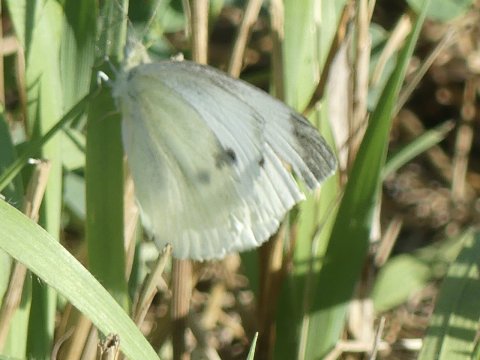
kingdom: Animalia
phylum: Arthropoda
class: Insecta
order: Lepidoptera
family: Pieridae
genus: Pieris
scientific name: Pieris rapae
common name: Cabbage White
